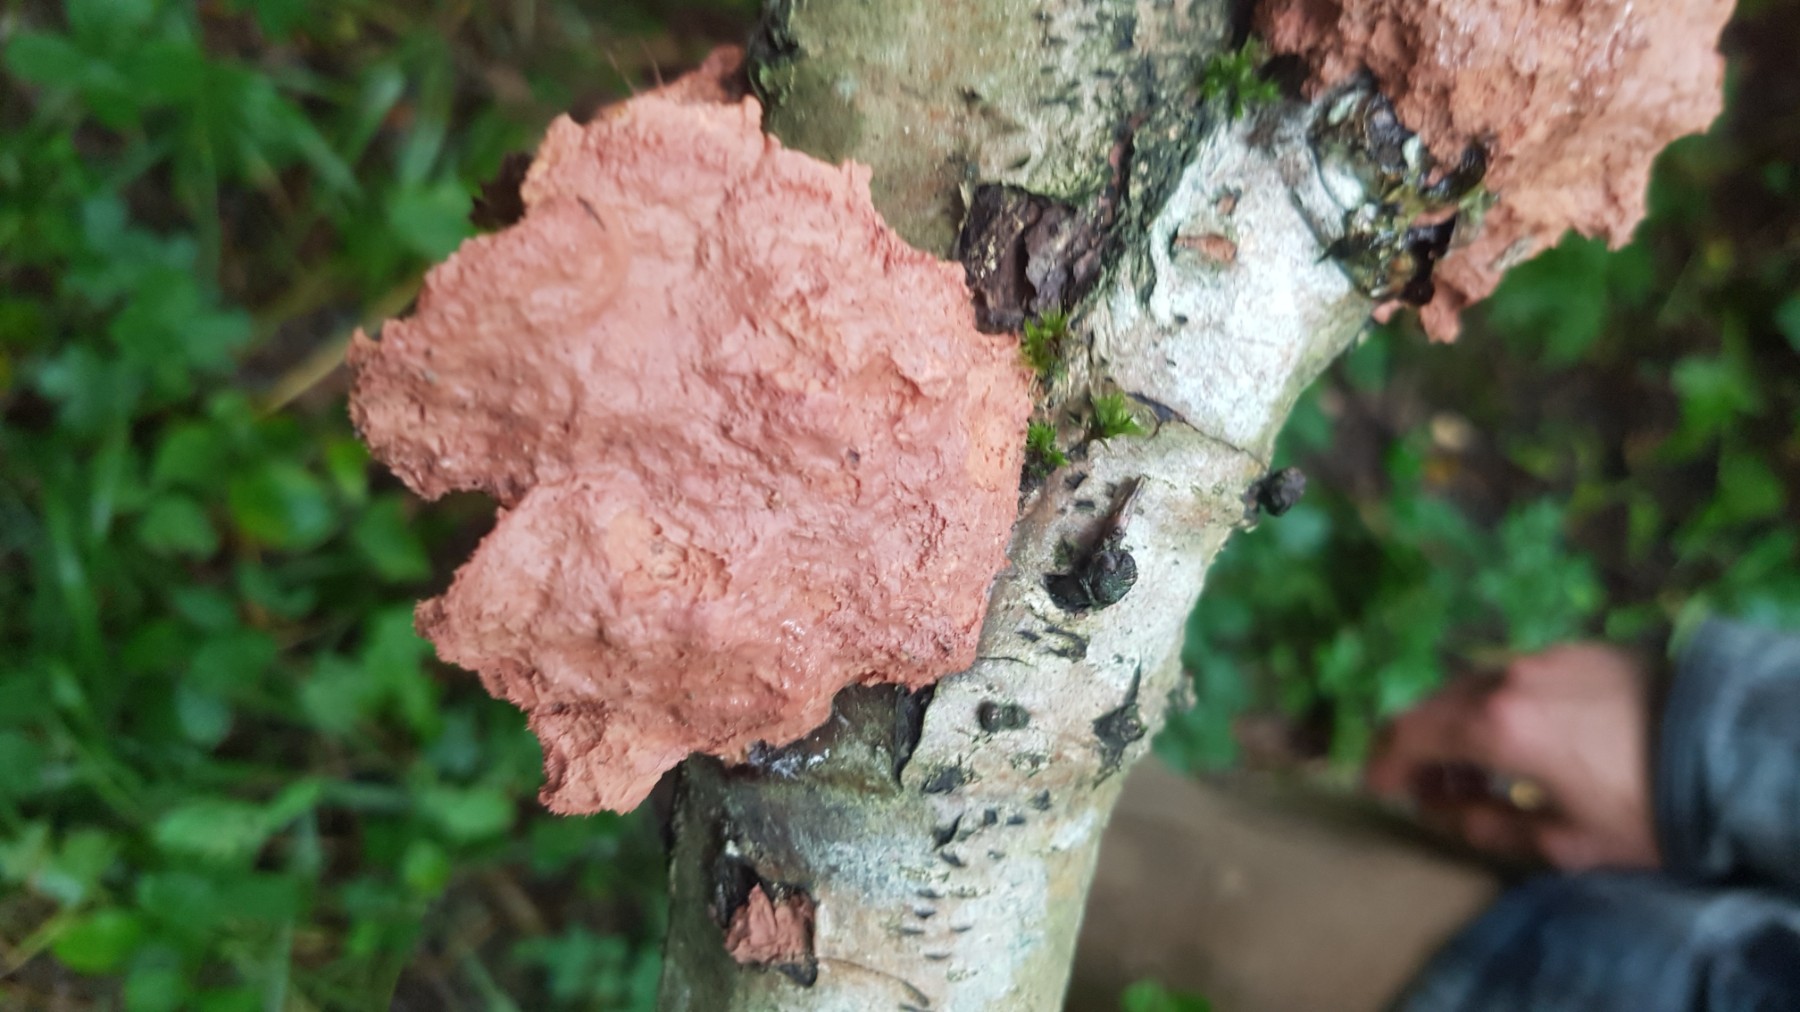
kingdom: Fungi
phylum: Basidiomycota
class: Agaricomycetes
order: Polyporales
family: Phanerochaetaceae
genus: Hapalopilus
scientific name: Hapalopilus rutilans
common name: rødlig okkerporesvamp
